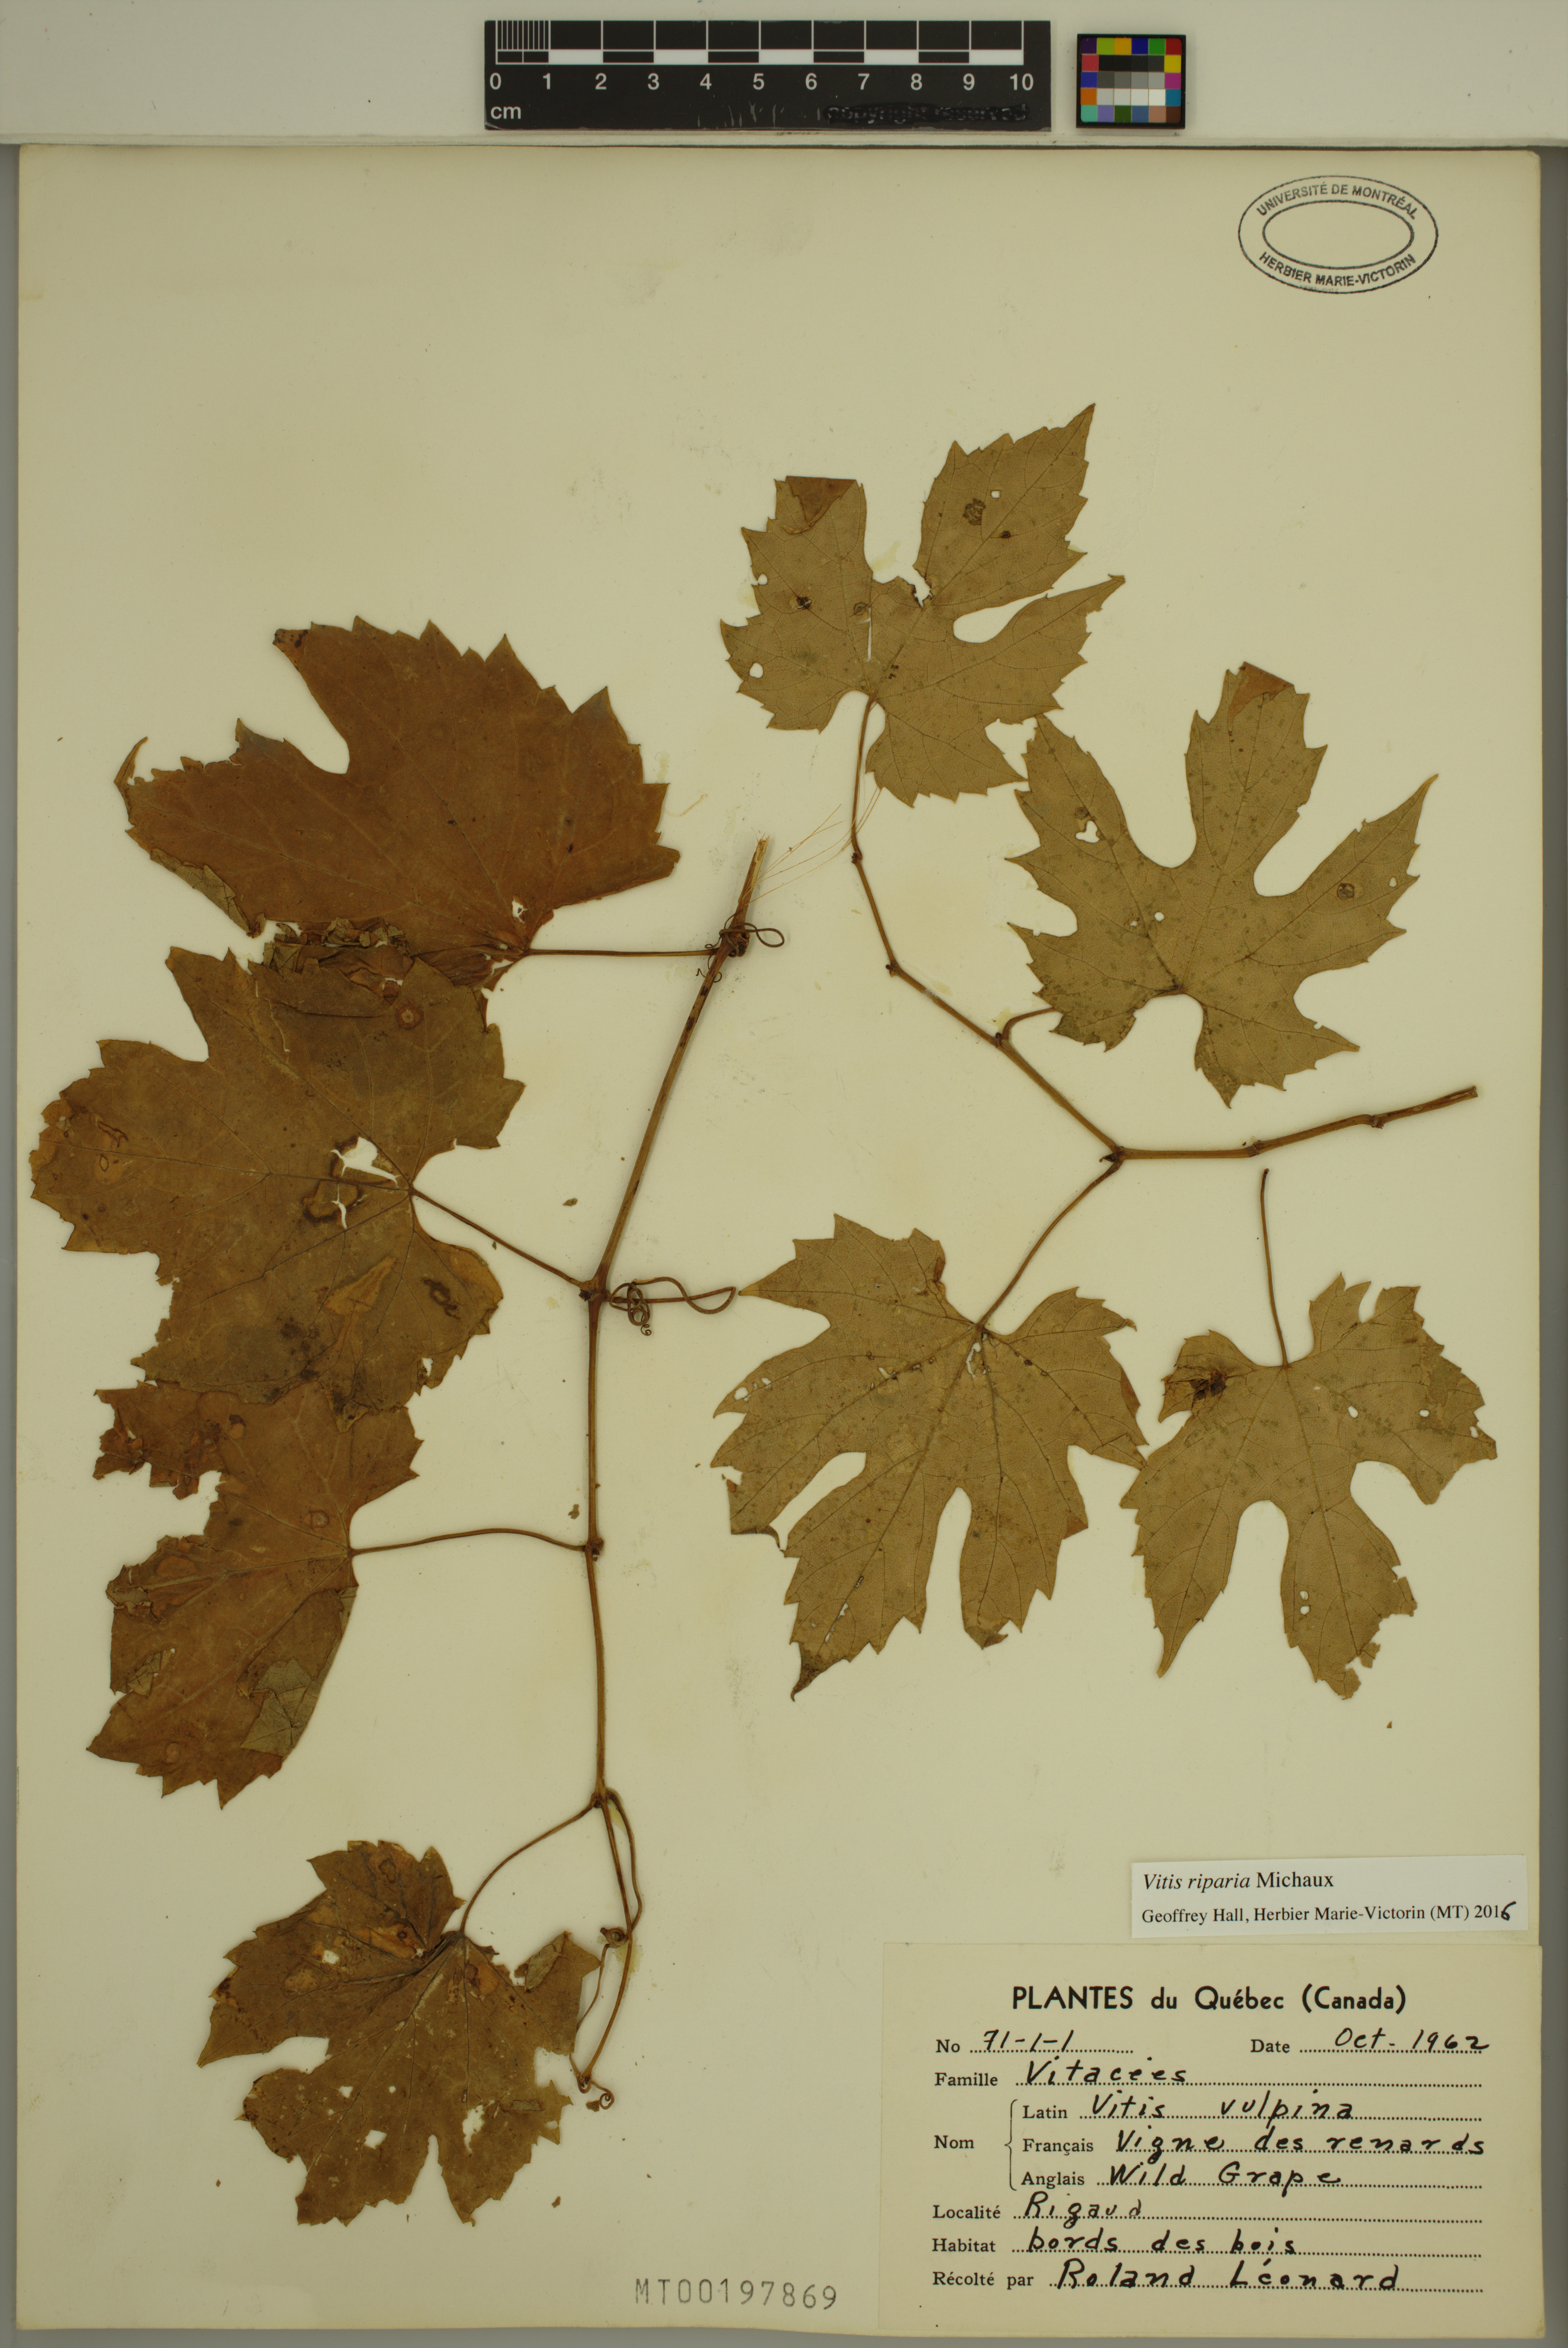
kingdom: Plantae
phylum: Tracheophyta
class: Magnoliopsida
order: Vitales
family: Vitaceae
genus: Vitis
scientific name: Vitis riparia
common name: Frost grape
